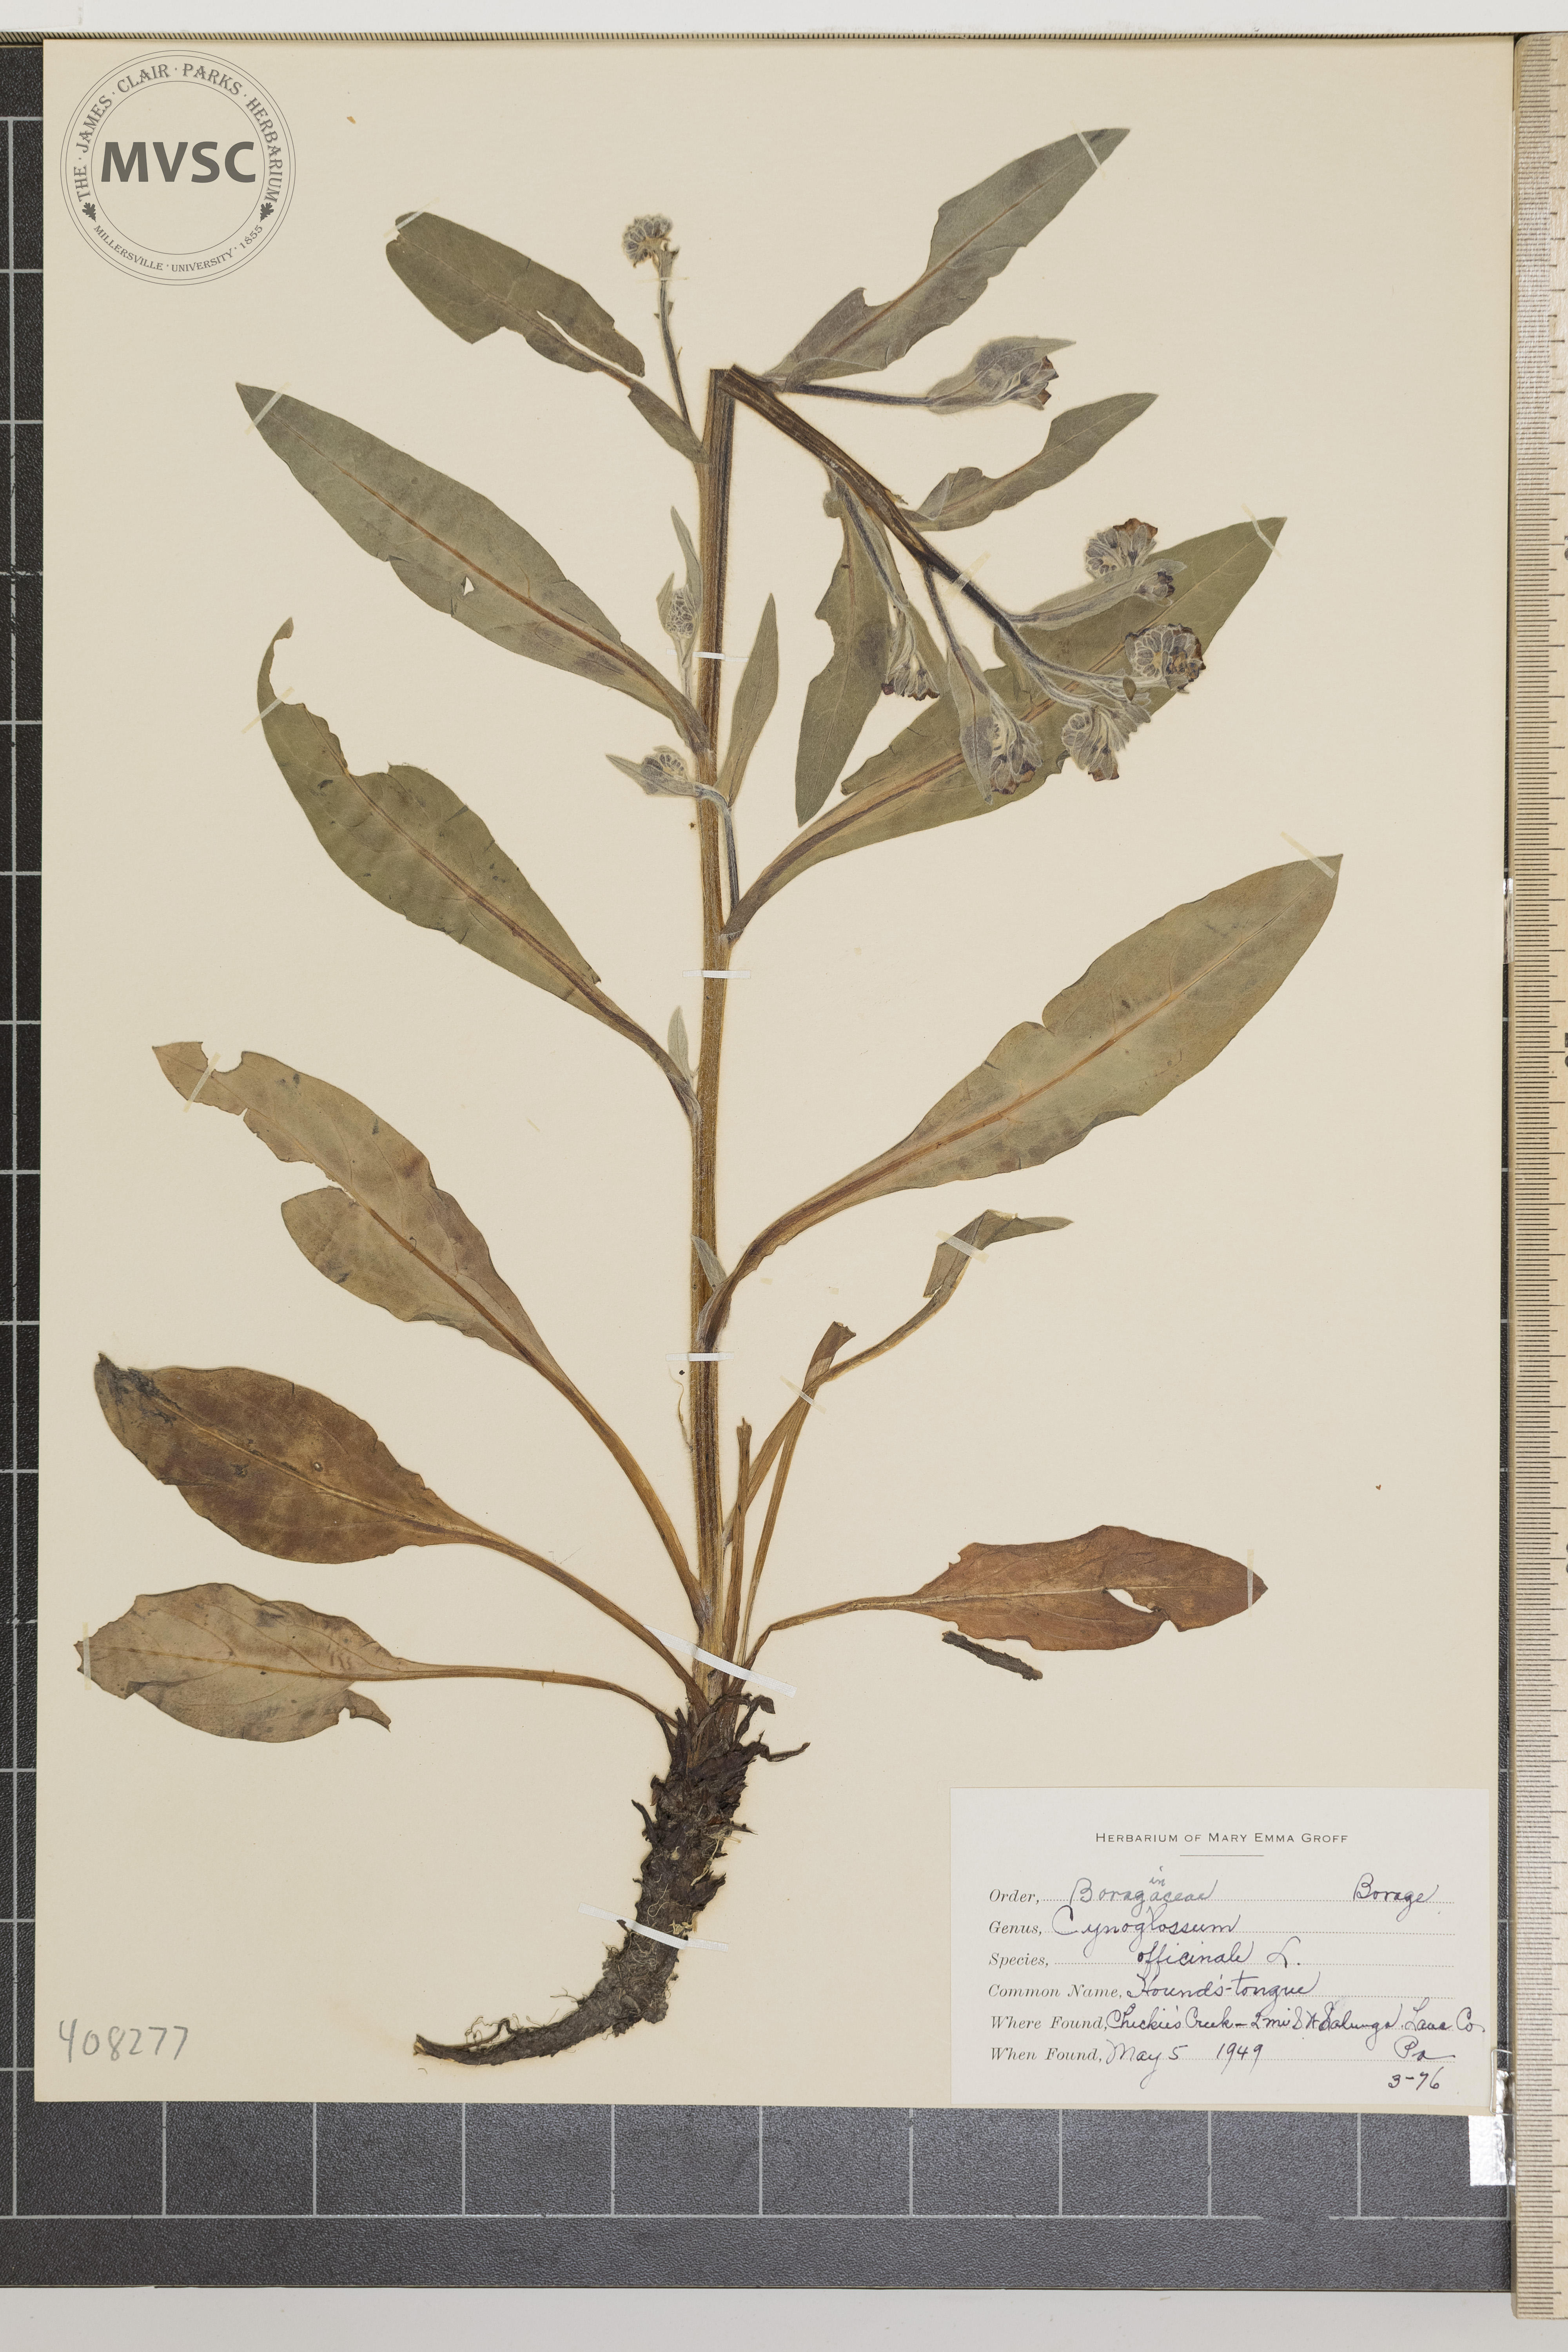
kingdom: Plantae
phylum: Tracheophyta
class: Magnoliopsida
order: Boraginales
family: Boraginaceae
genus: Cynoglossum
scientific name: Cynoglossum officinale
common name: Hound's-tongue
